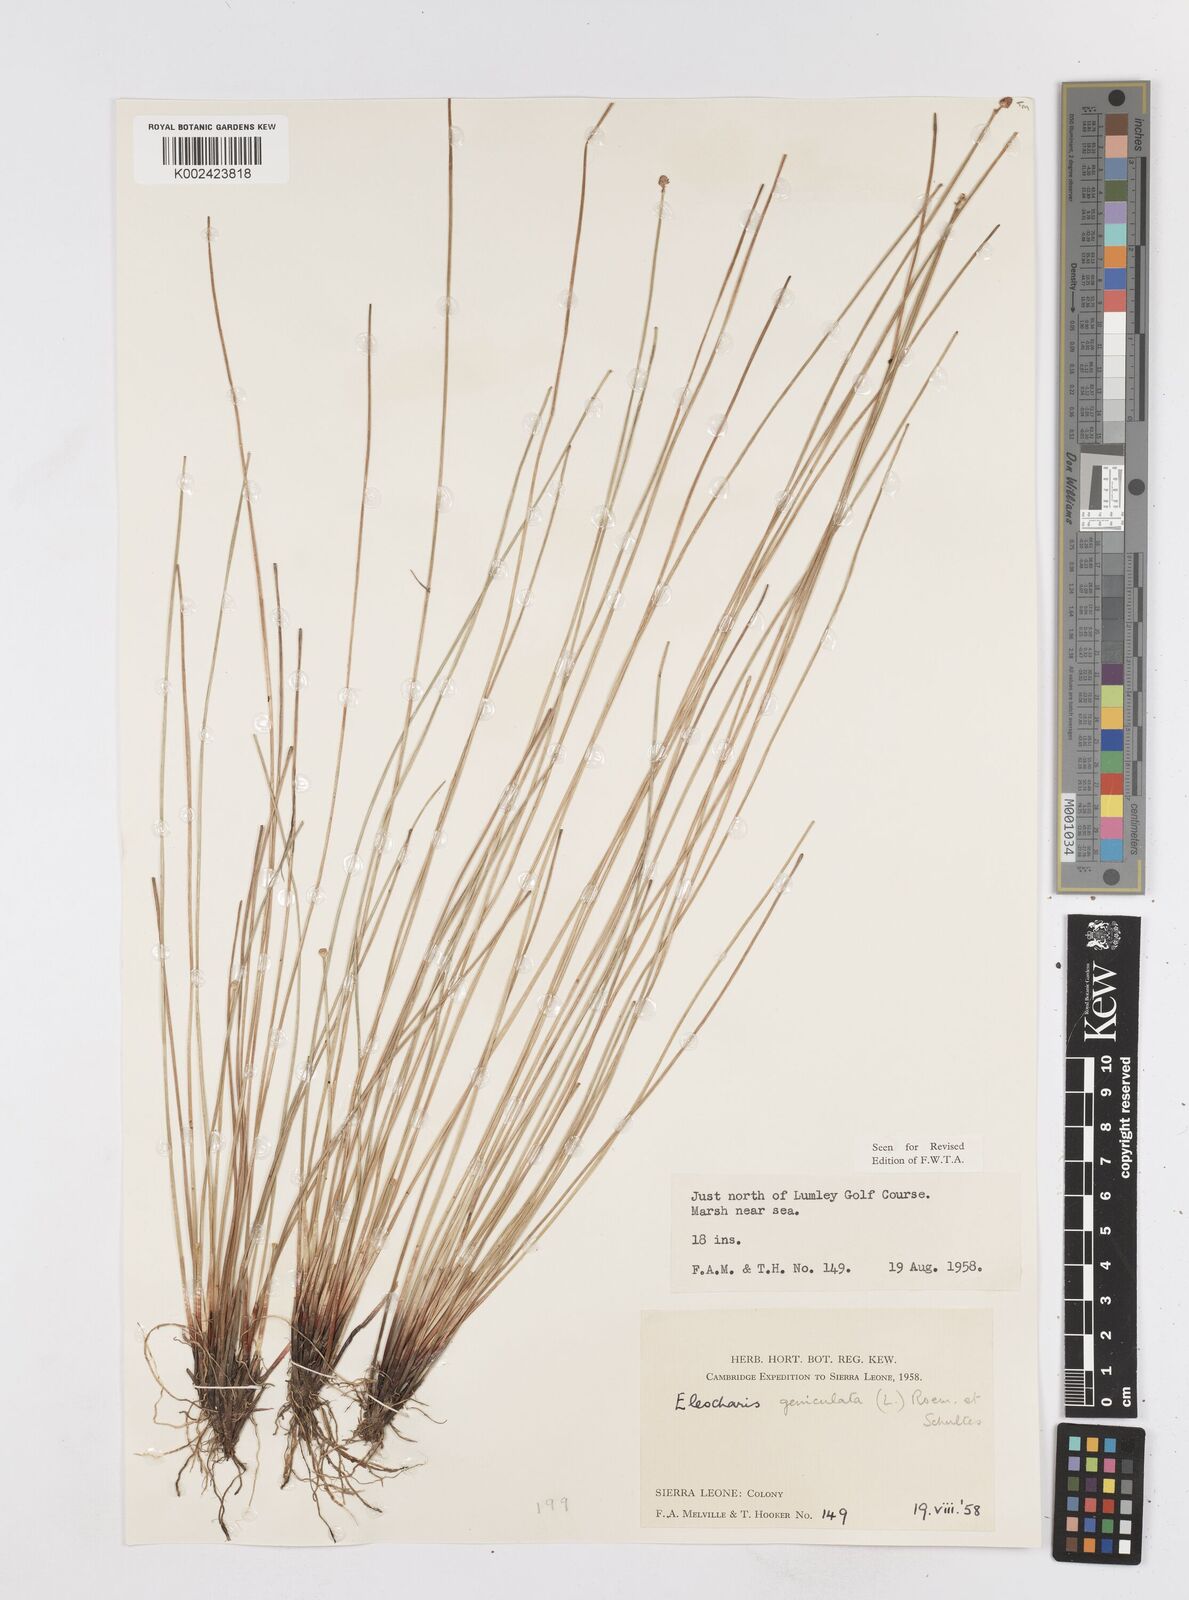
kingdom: Plantae
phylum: Tracheophyta
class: Liliopsida
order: Poales
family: Cyperaceae
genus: Eleocharis
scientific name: Eleocharis geniculata
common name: Canada spikesedge
